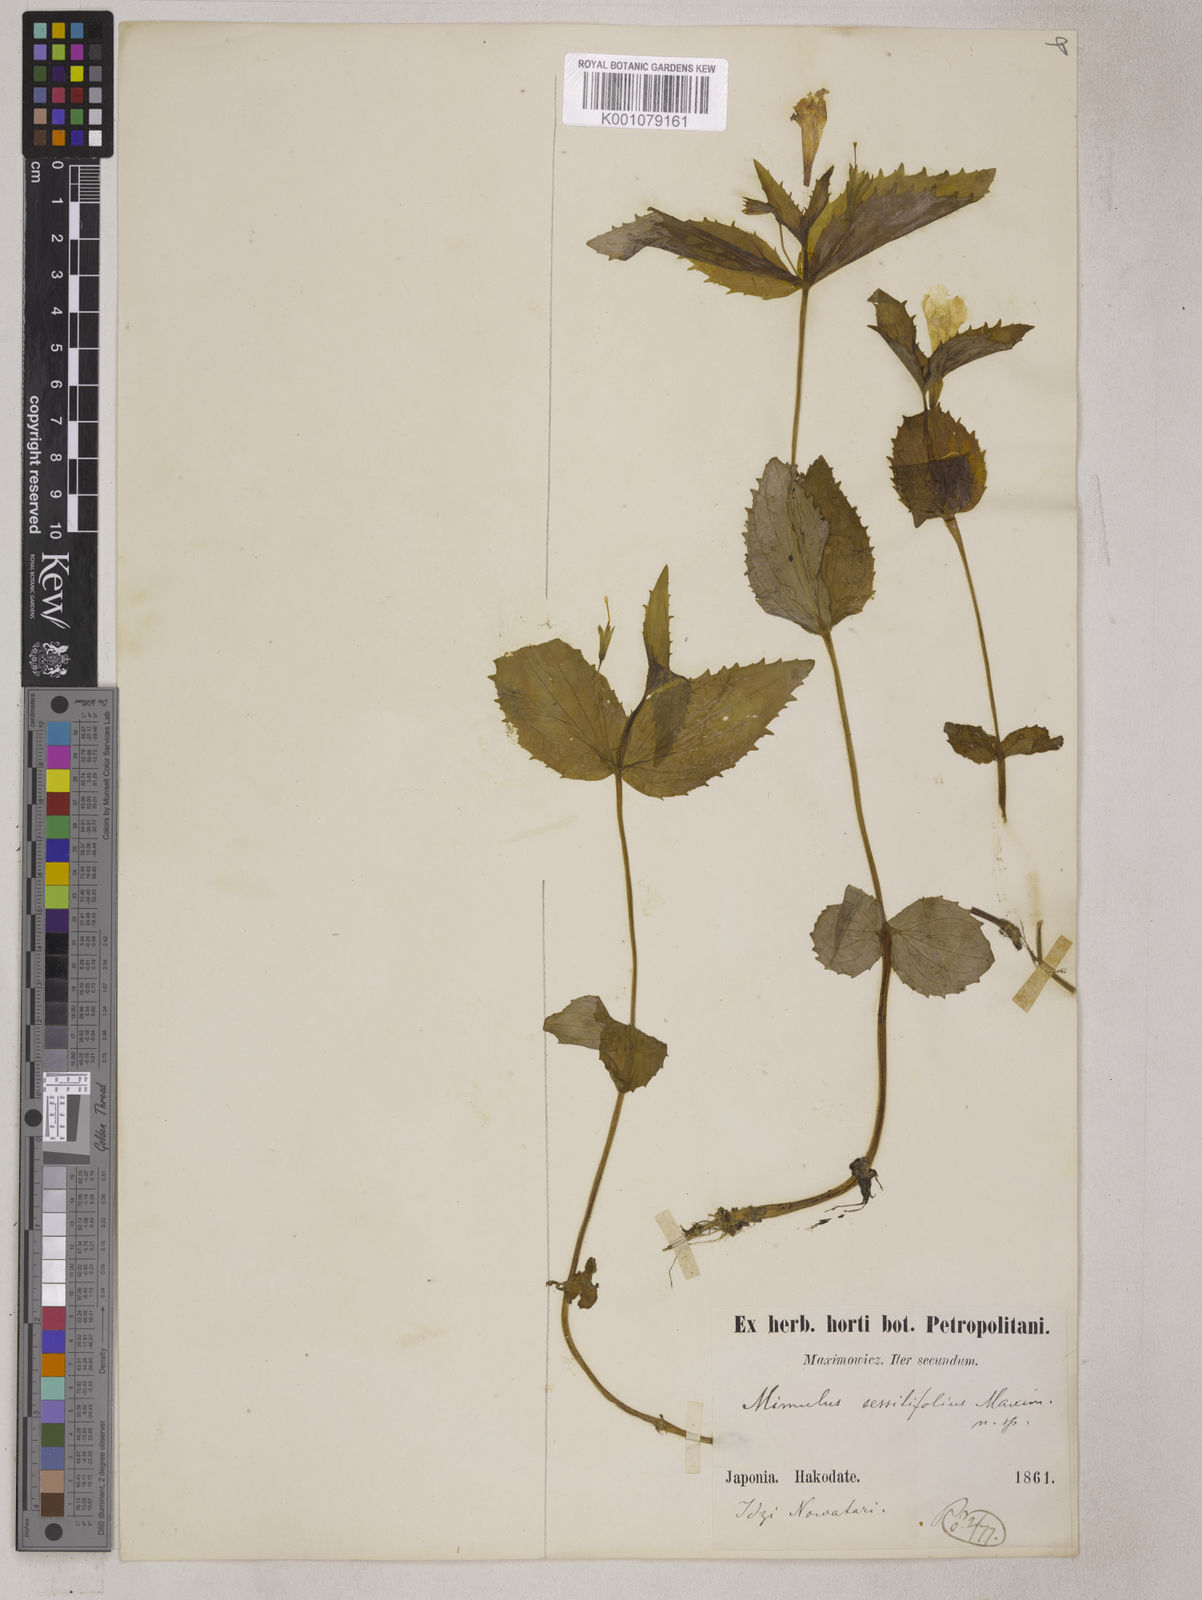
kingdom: Plantae
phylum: Tracheophyta
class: Magnoliopsida
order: Lamiales
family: Phrymaceae
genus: Erythranthe
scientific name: Erythranthe sessilifolia
